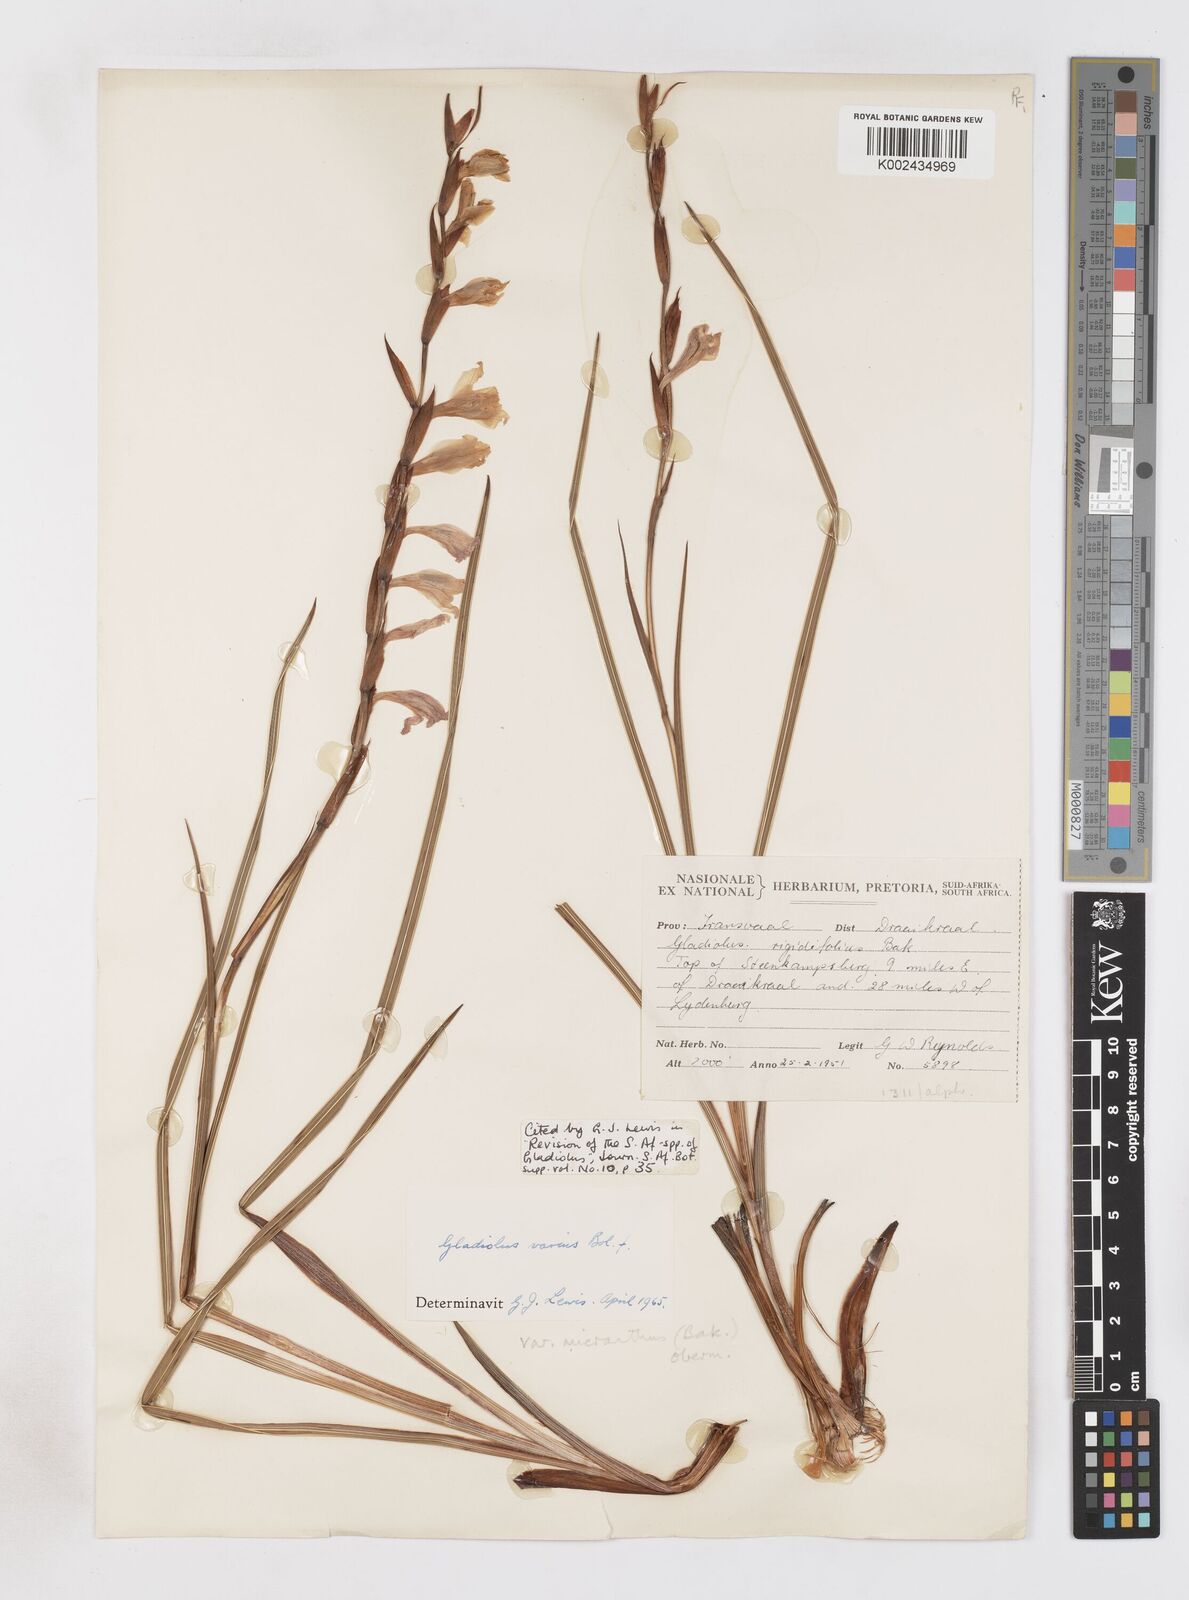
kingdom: Plantae
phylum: Tracheophyta
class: Liliopsida
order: Asparagales
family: Iridaceae
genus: Gladiolus
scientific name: Gladiolus ferrugineus
